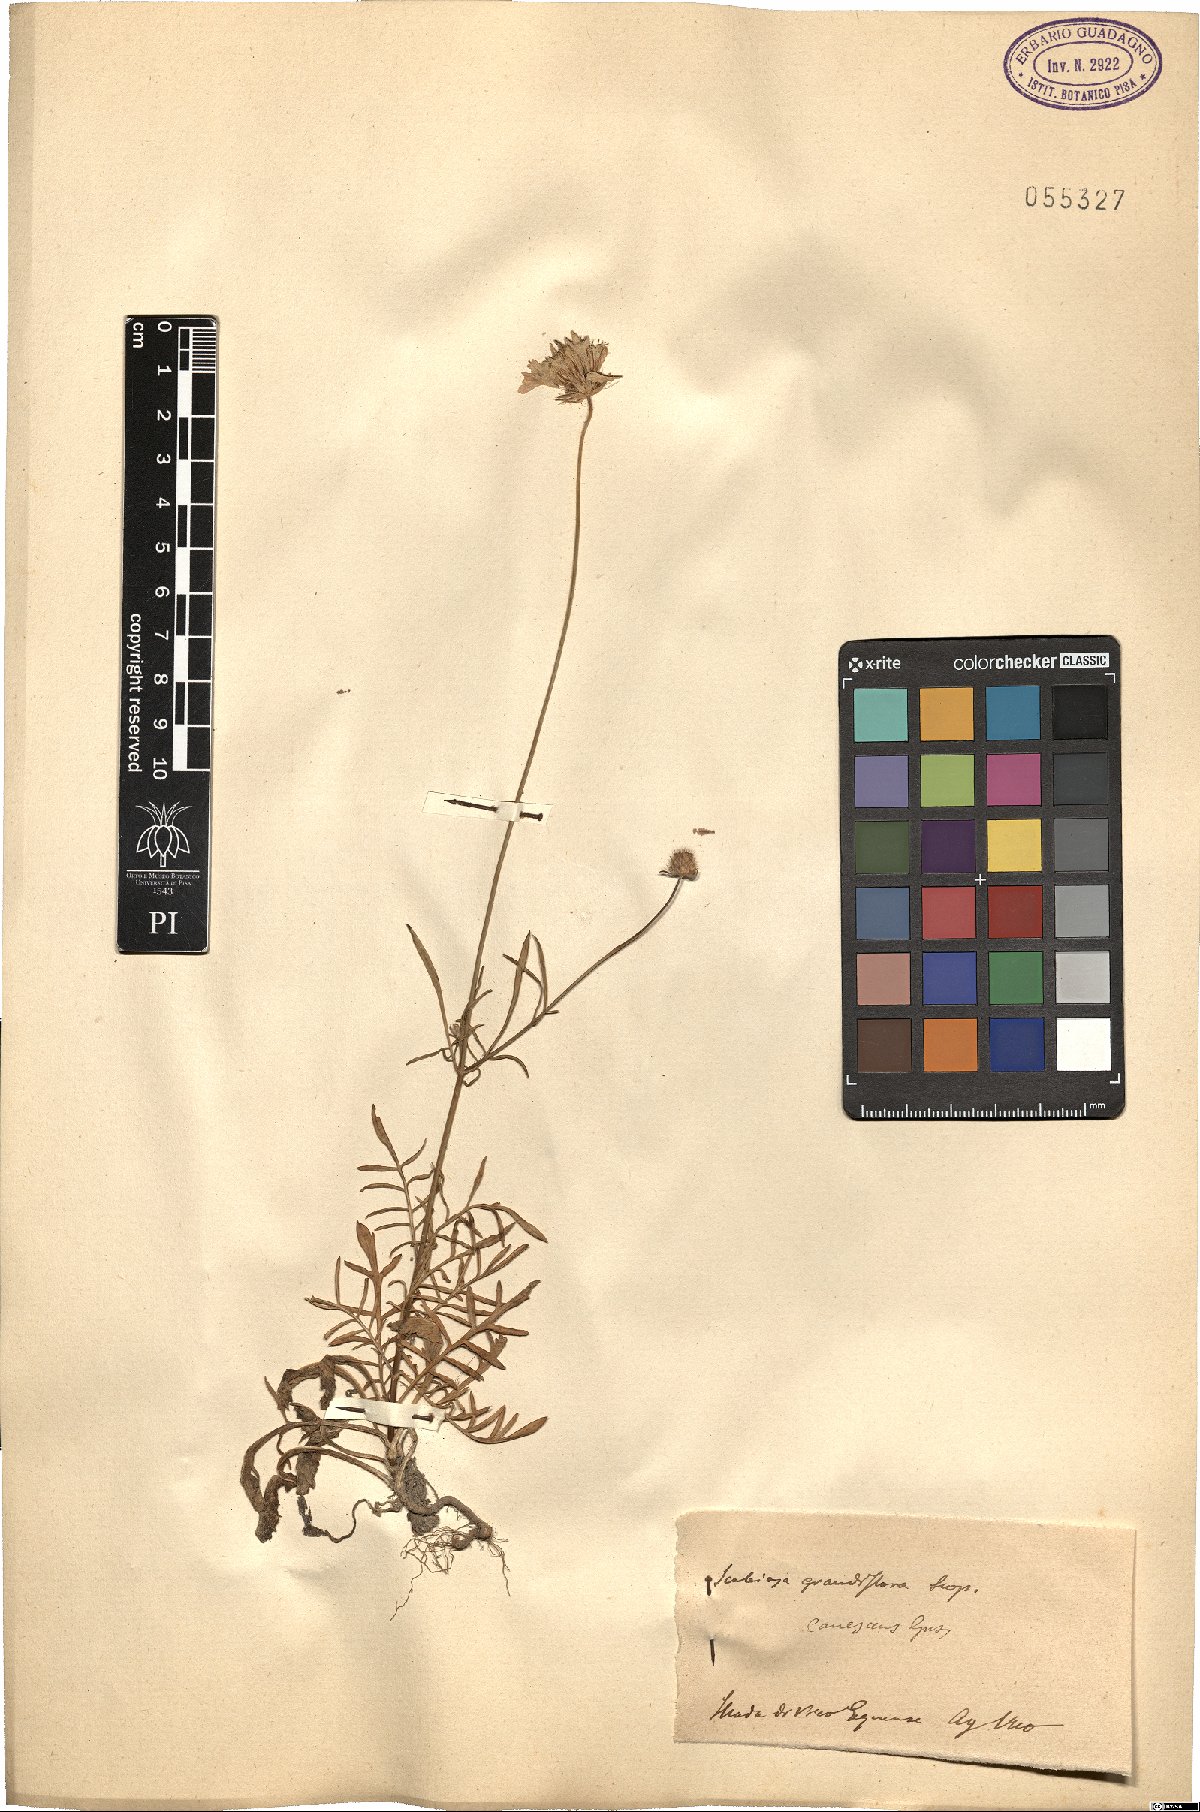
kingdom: Plantae
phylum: Tracheophyta
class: Magnoliopsida
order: Dipsacales
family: Caprifoliaceae
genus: Sixalix
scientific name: Sixalix maritima
